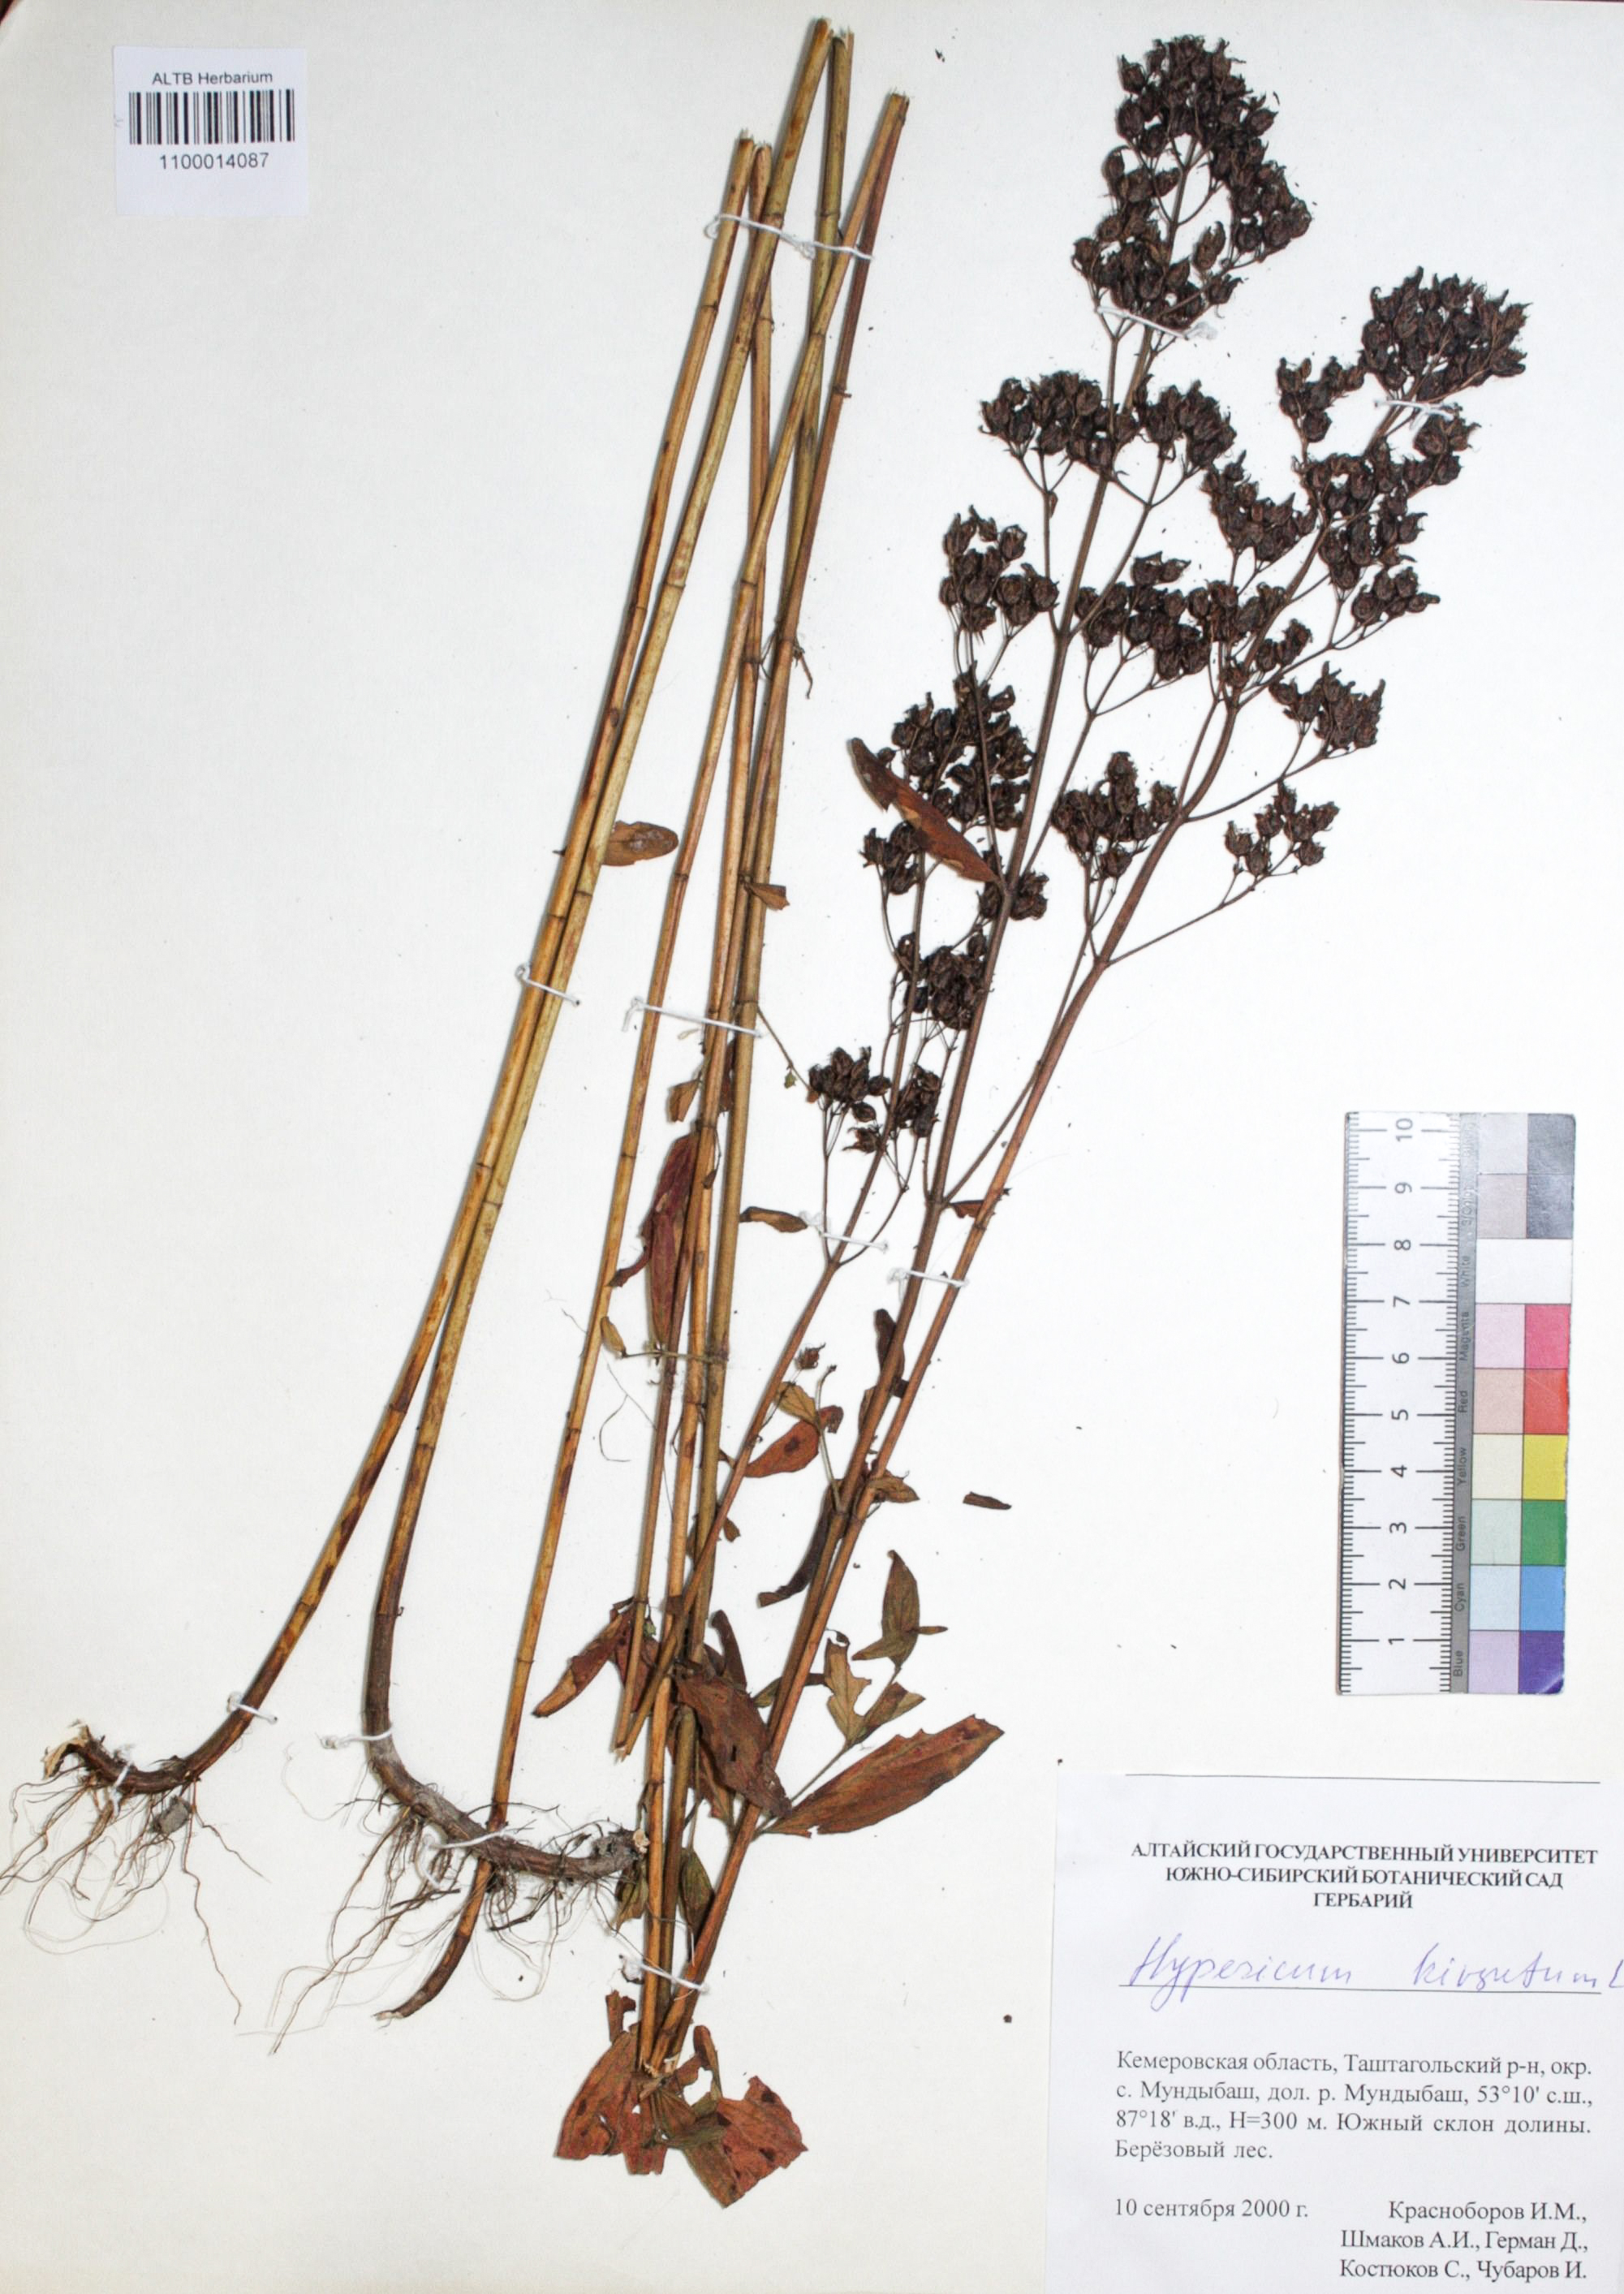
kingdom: Plantae
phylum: Tracheophyta
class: Magnoliopsida
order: Malpighiales
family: Hypericaceae
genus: Hypericum
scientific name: Hypericum hirsutum
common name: Hairy st. john's-wort
